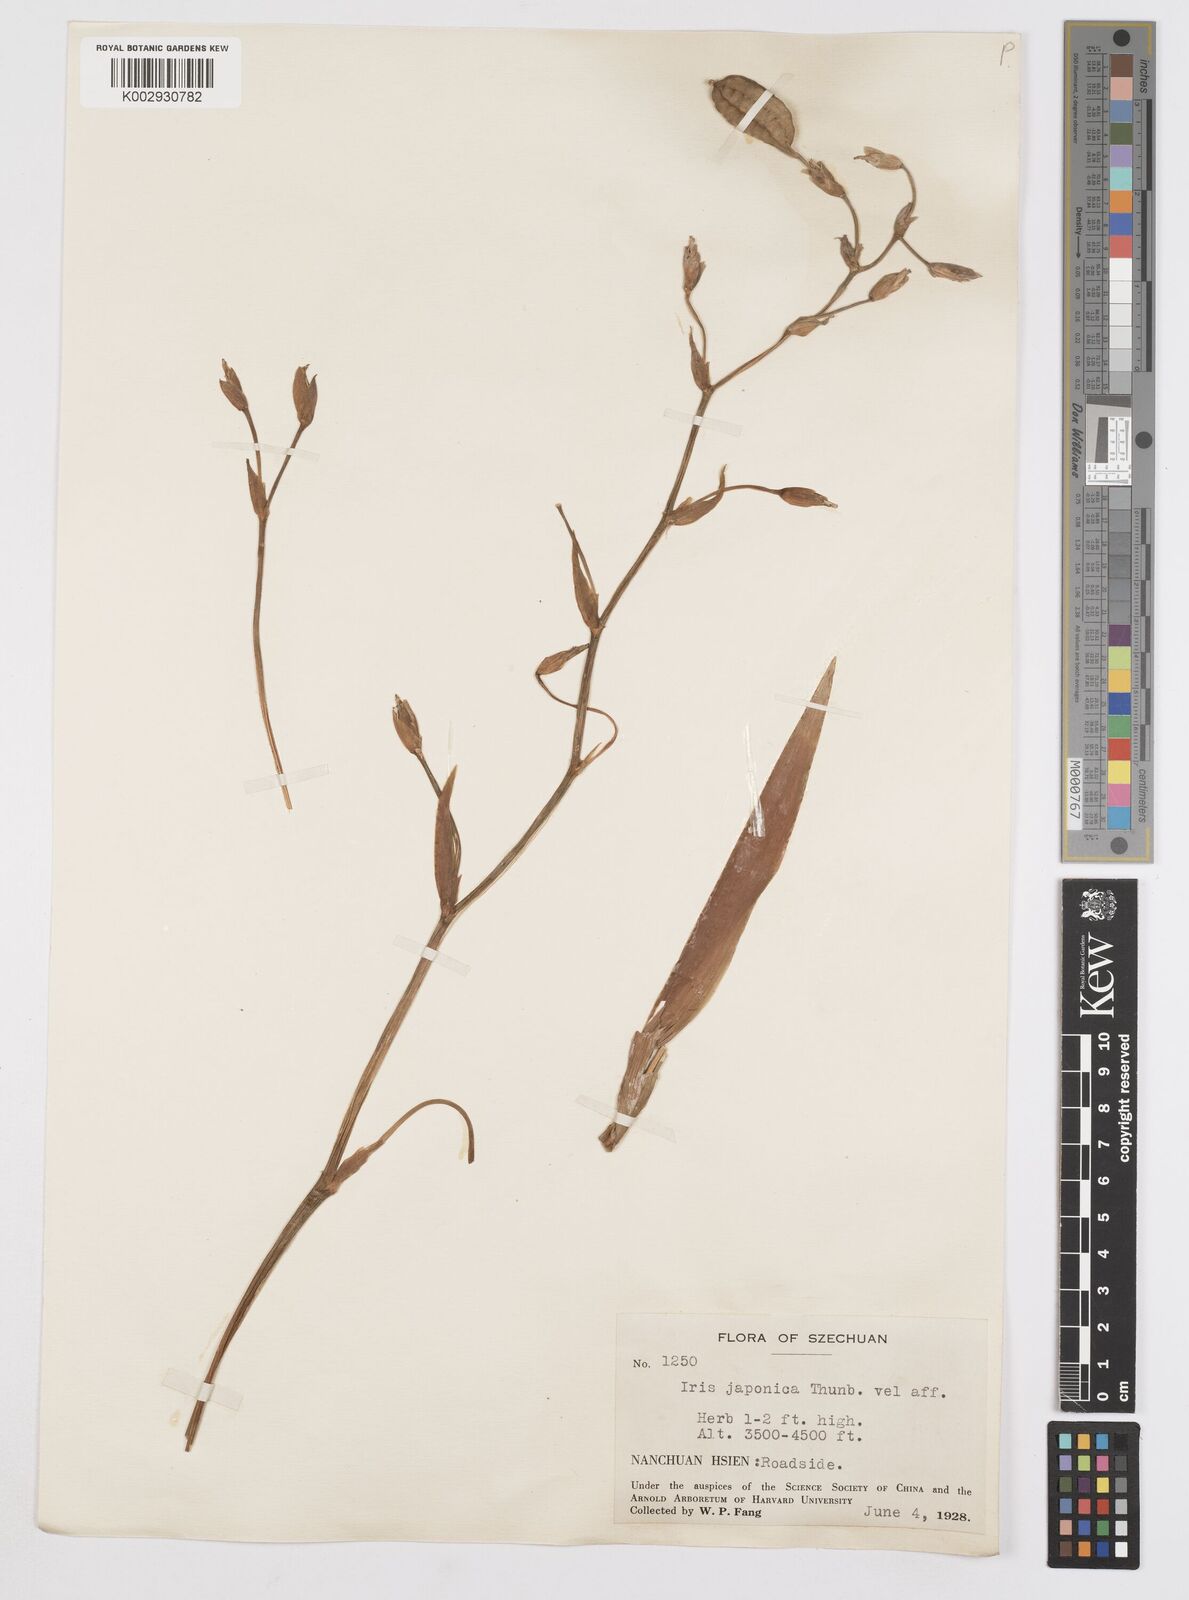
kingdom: Plantae
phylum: Tracheophyta
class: Liliopsida
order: Asparagales
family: Iridaceae
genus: Iris
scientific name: Iris japonica
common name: Butterfly-flower
